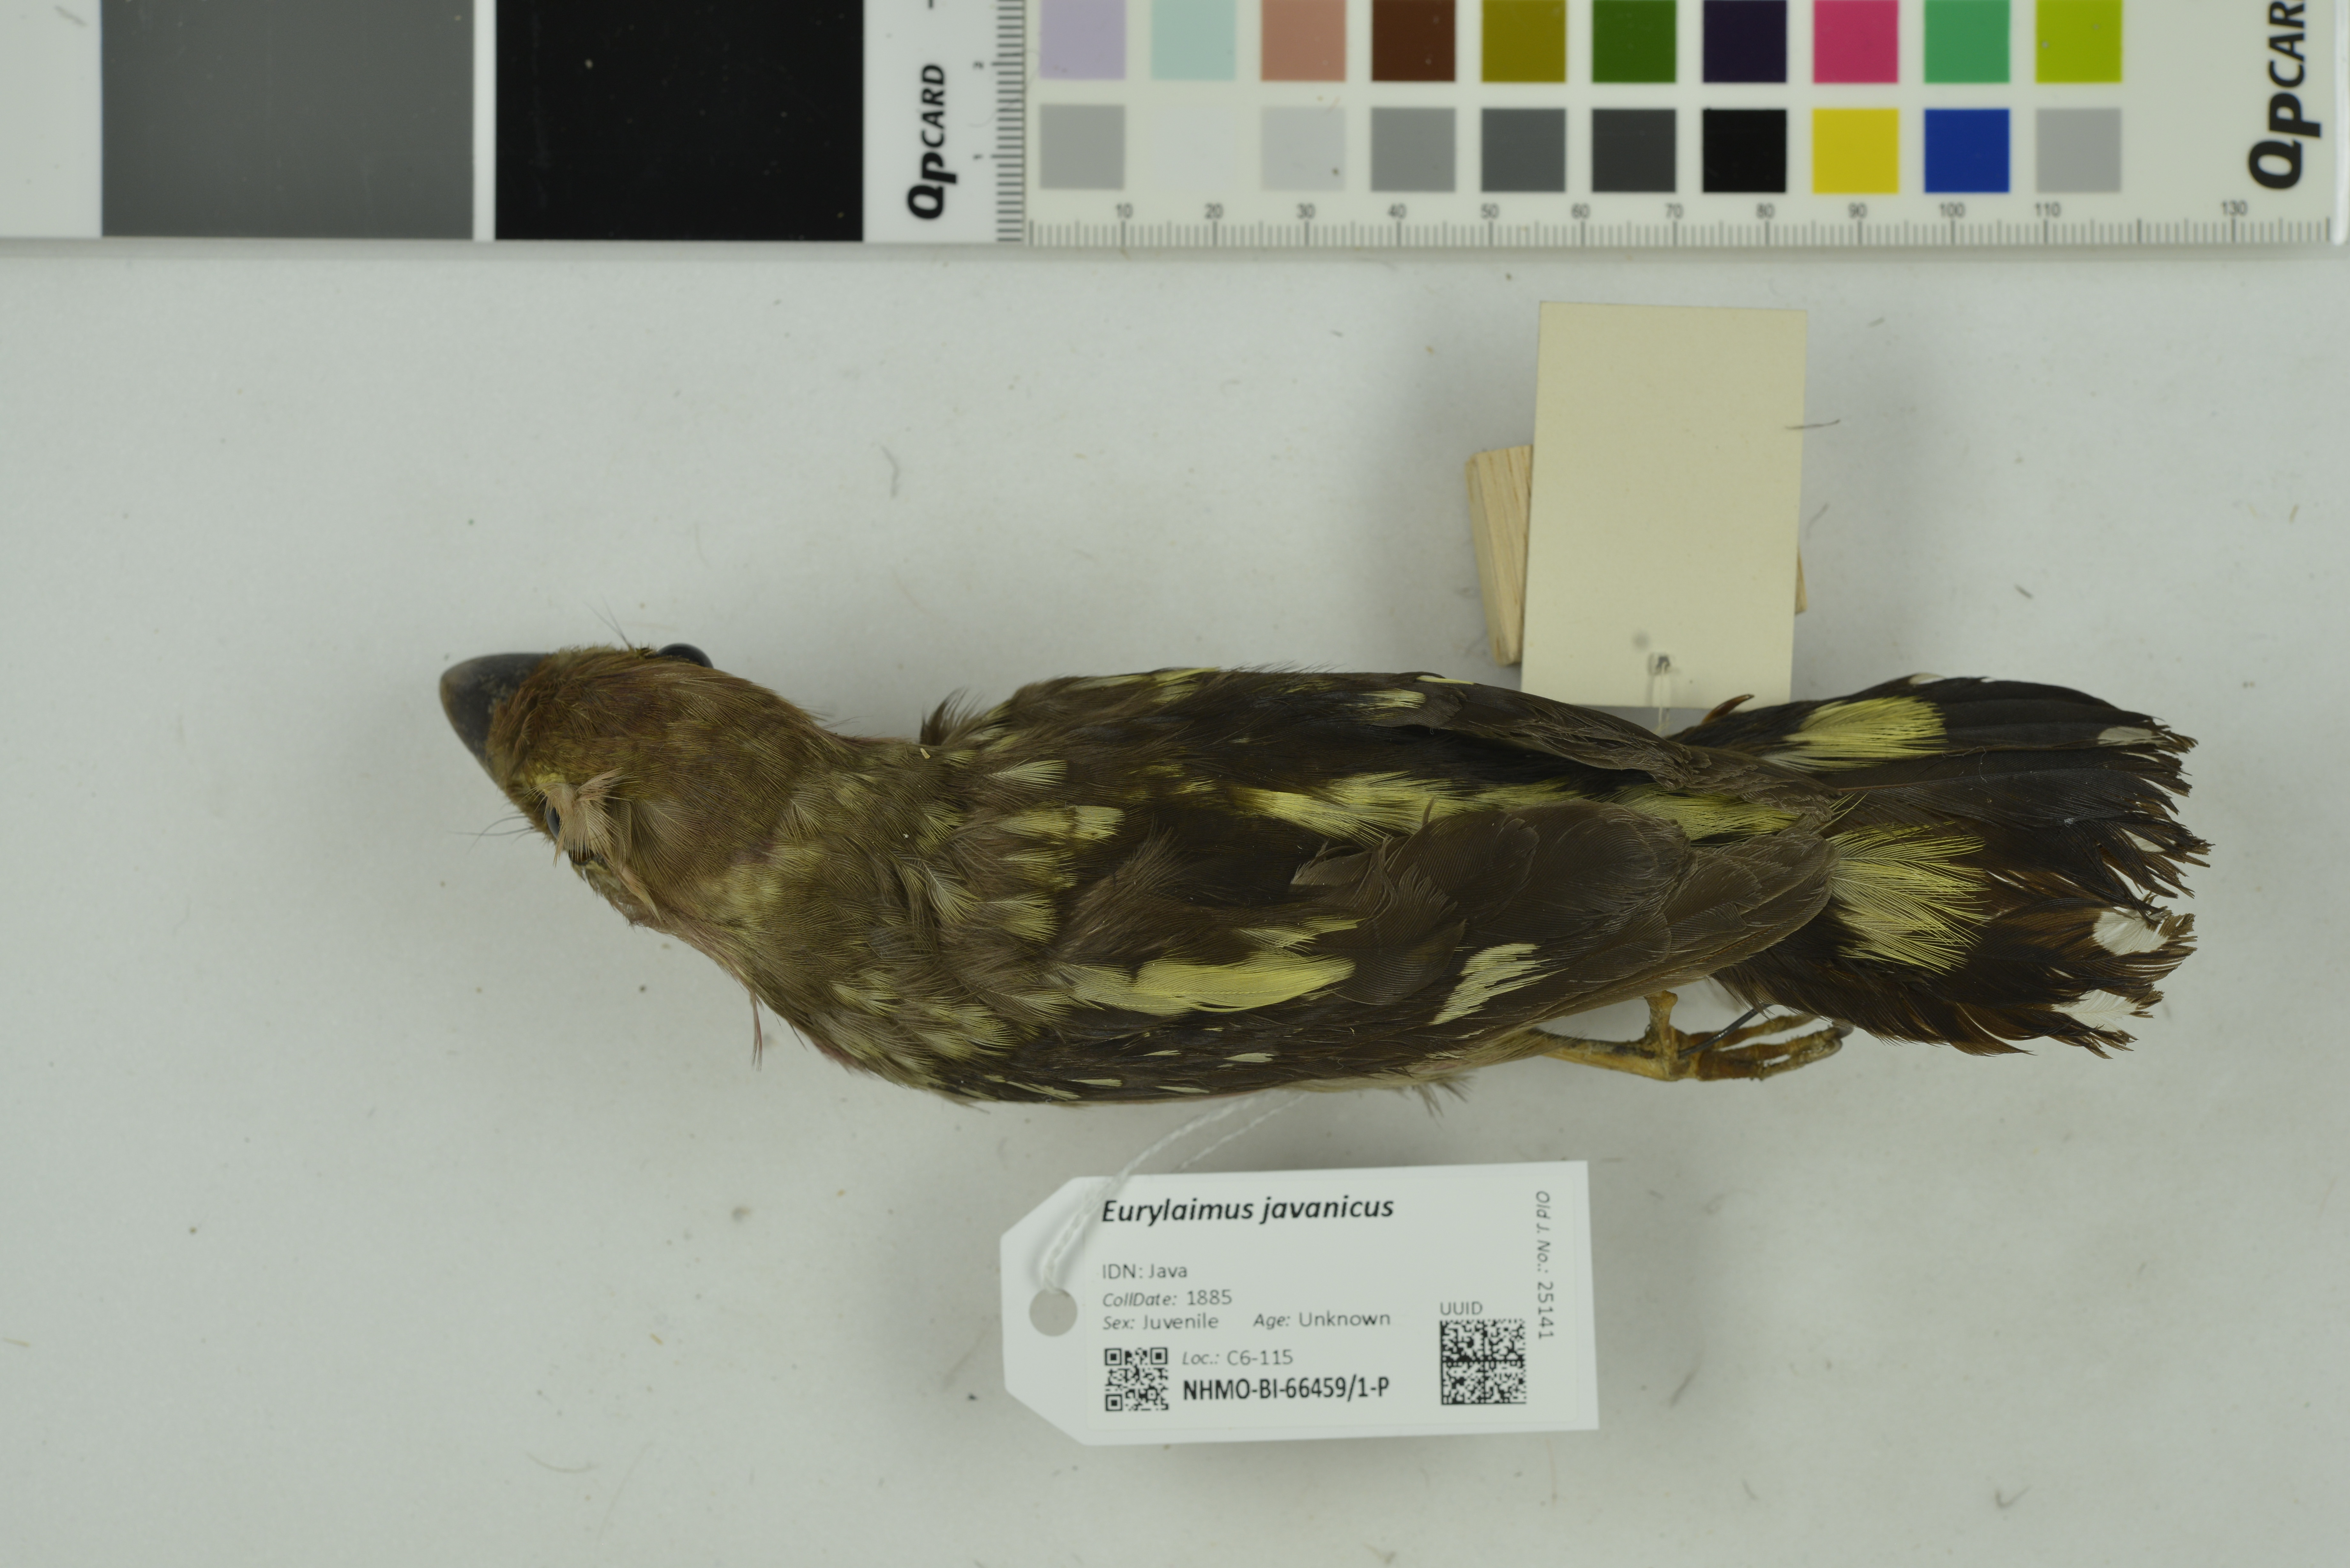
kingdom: Animalia
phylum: Chordata
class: Aves
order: Passeriformes
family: Eurylaimidae
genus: Eurylaimus
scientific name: Eurylaimus javanicus
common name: Banded broadbill
